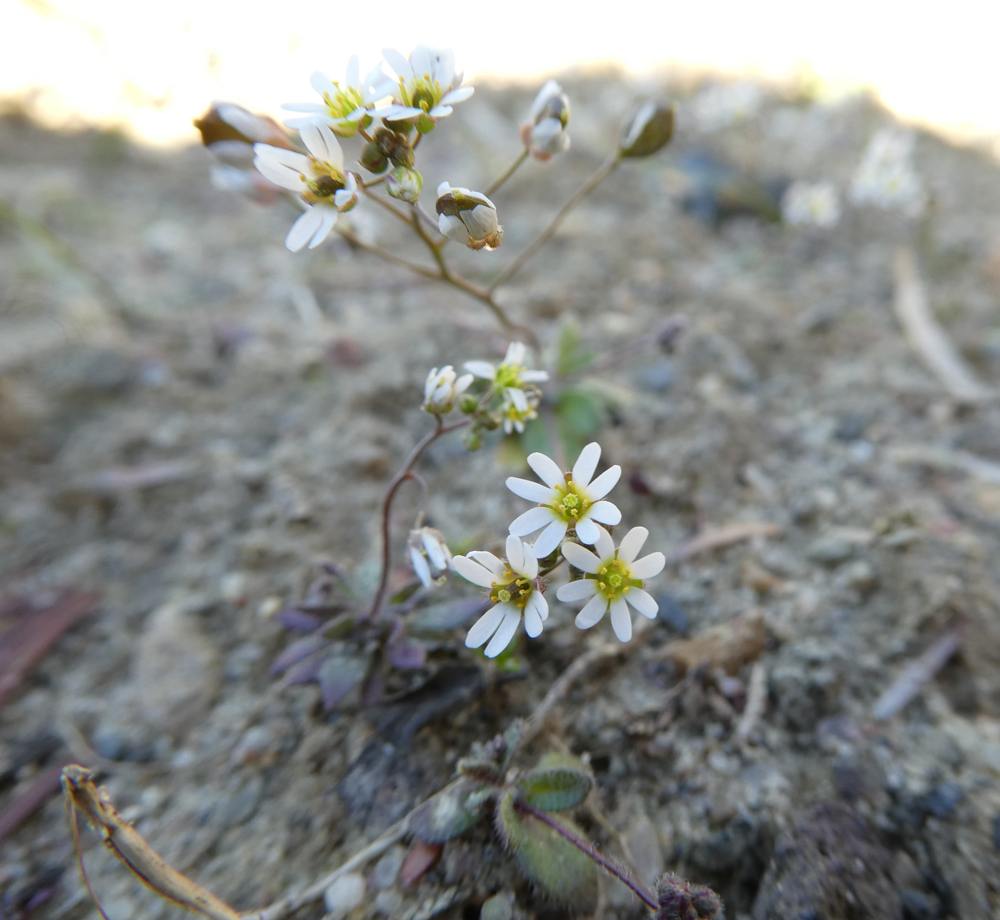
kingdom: Plantae
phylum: Tracheophyta
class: Magnoliopsida
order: Brassicales
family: Brassicaceae
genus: Draba
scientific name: Draba verna
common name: Spring draba
